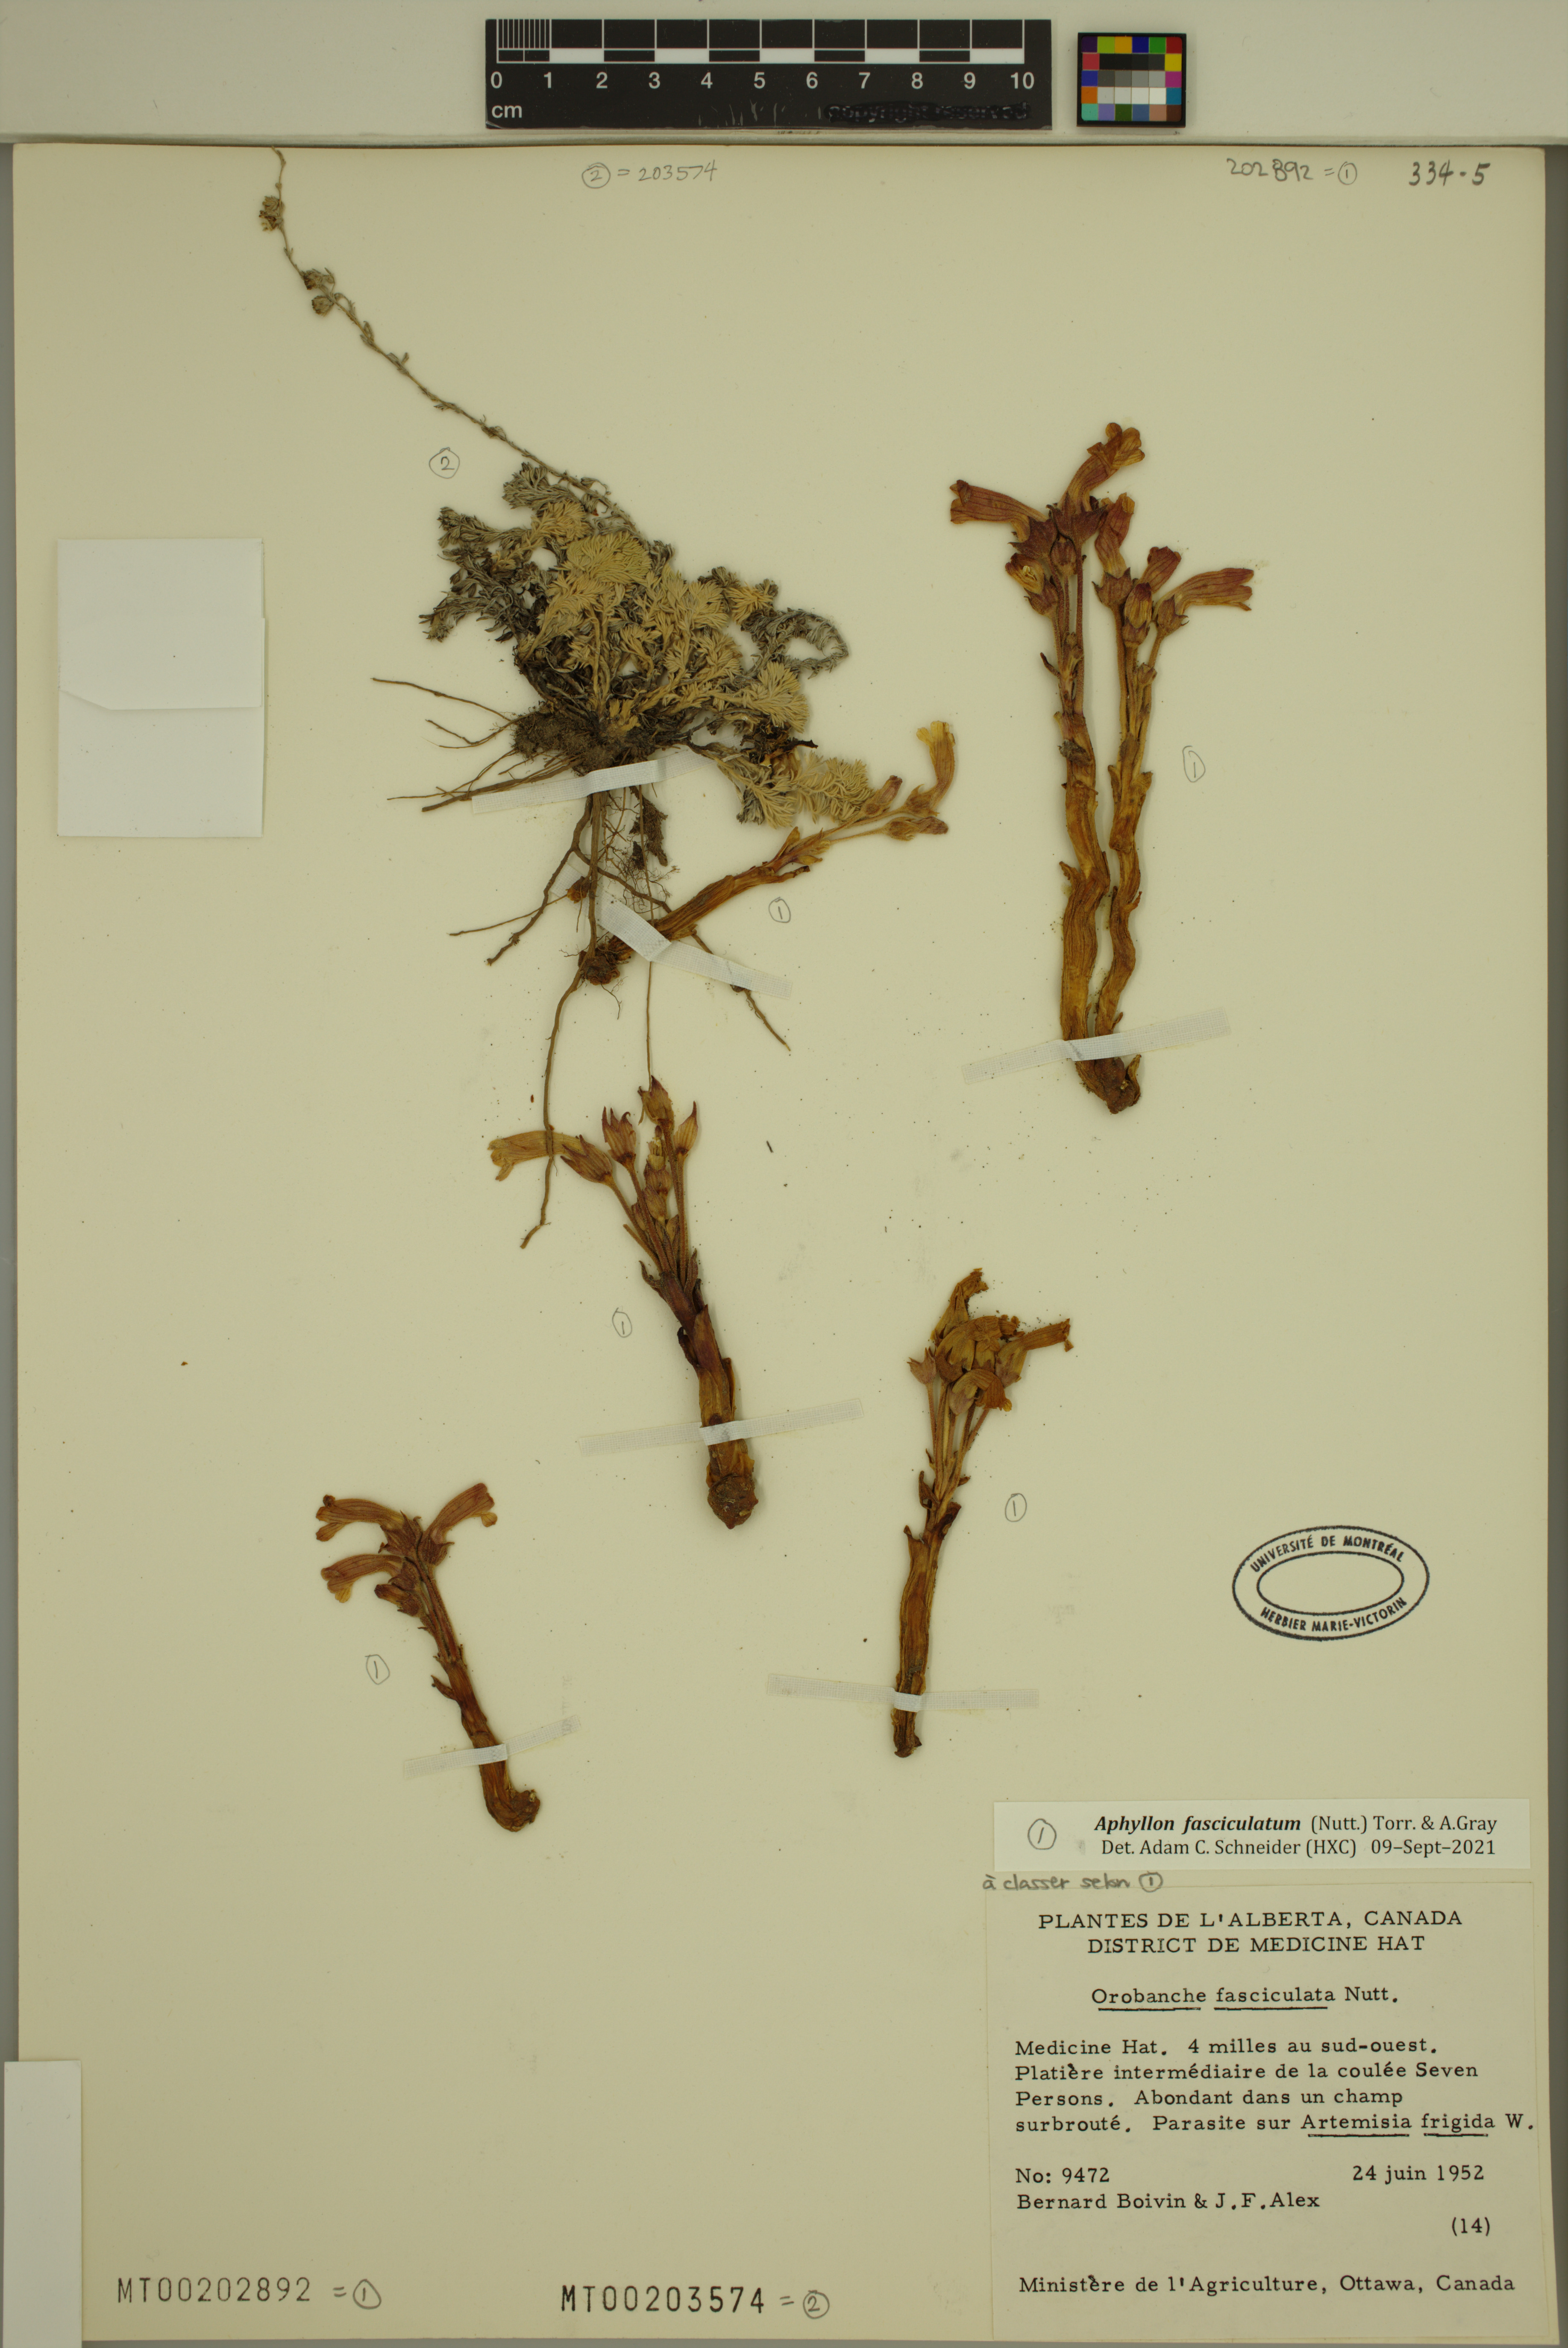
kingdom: Plantae
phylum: Tracheophyta
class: Magnoliopsida
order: Asterales
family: Asteraceae
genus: Artemisia
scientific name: Artemisia frigida
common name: Prairie sagewort
